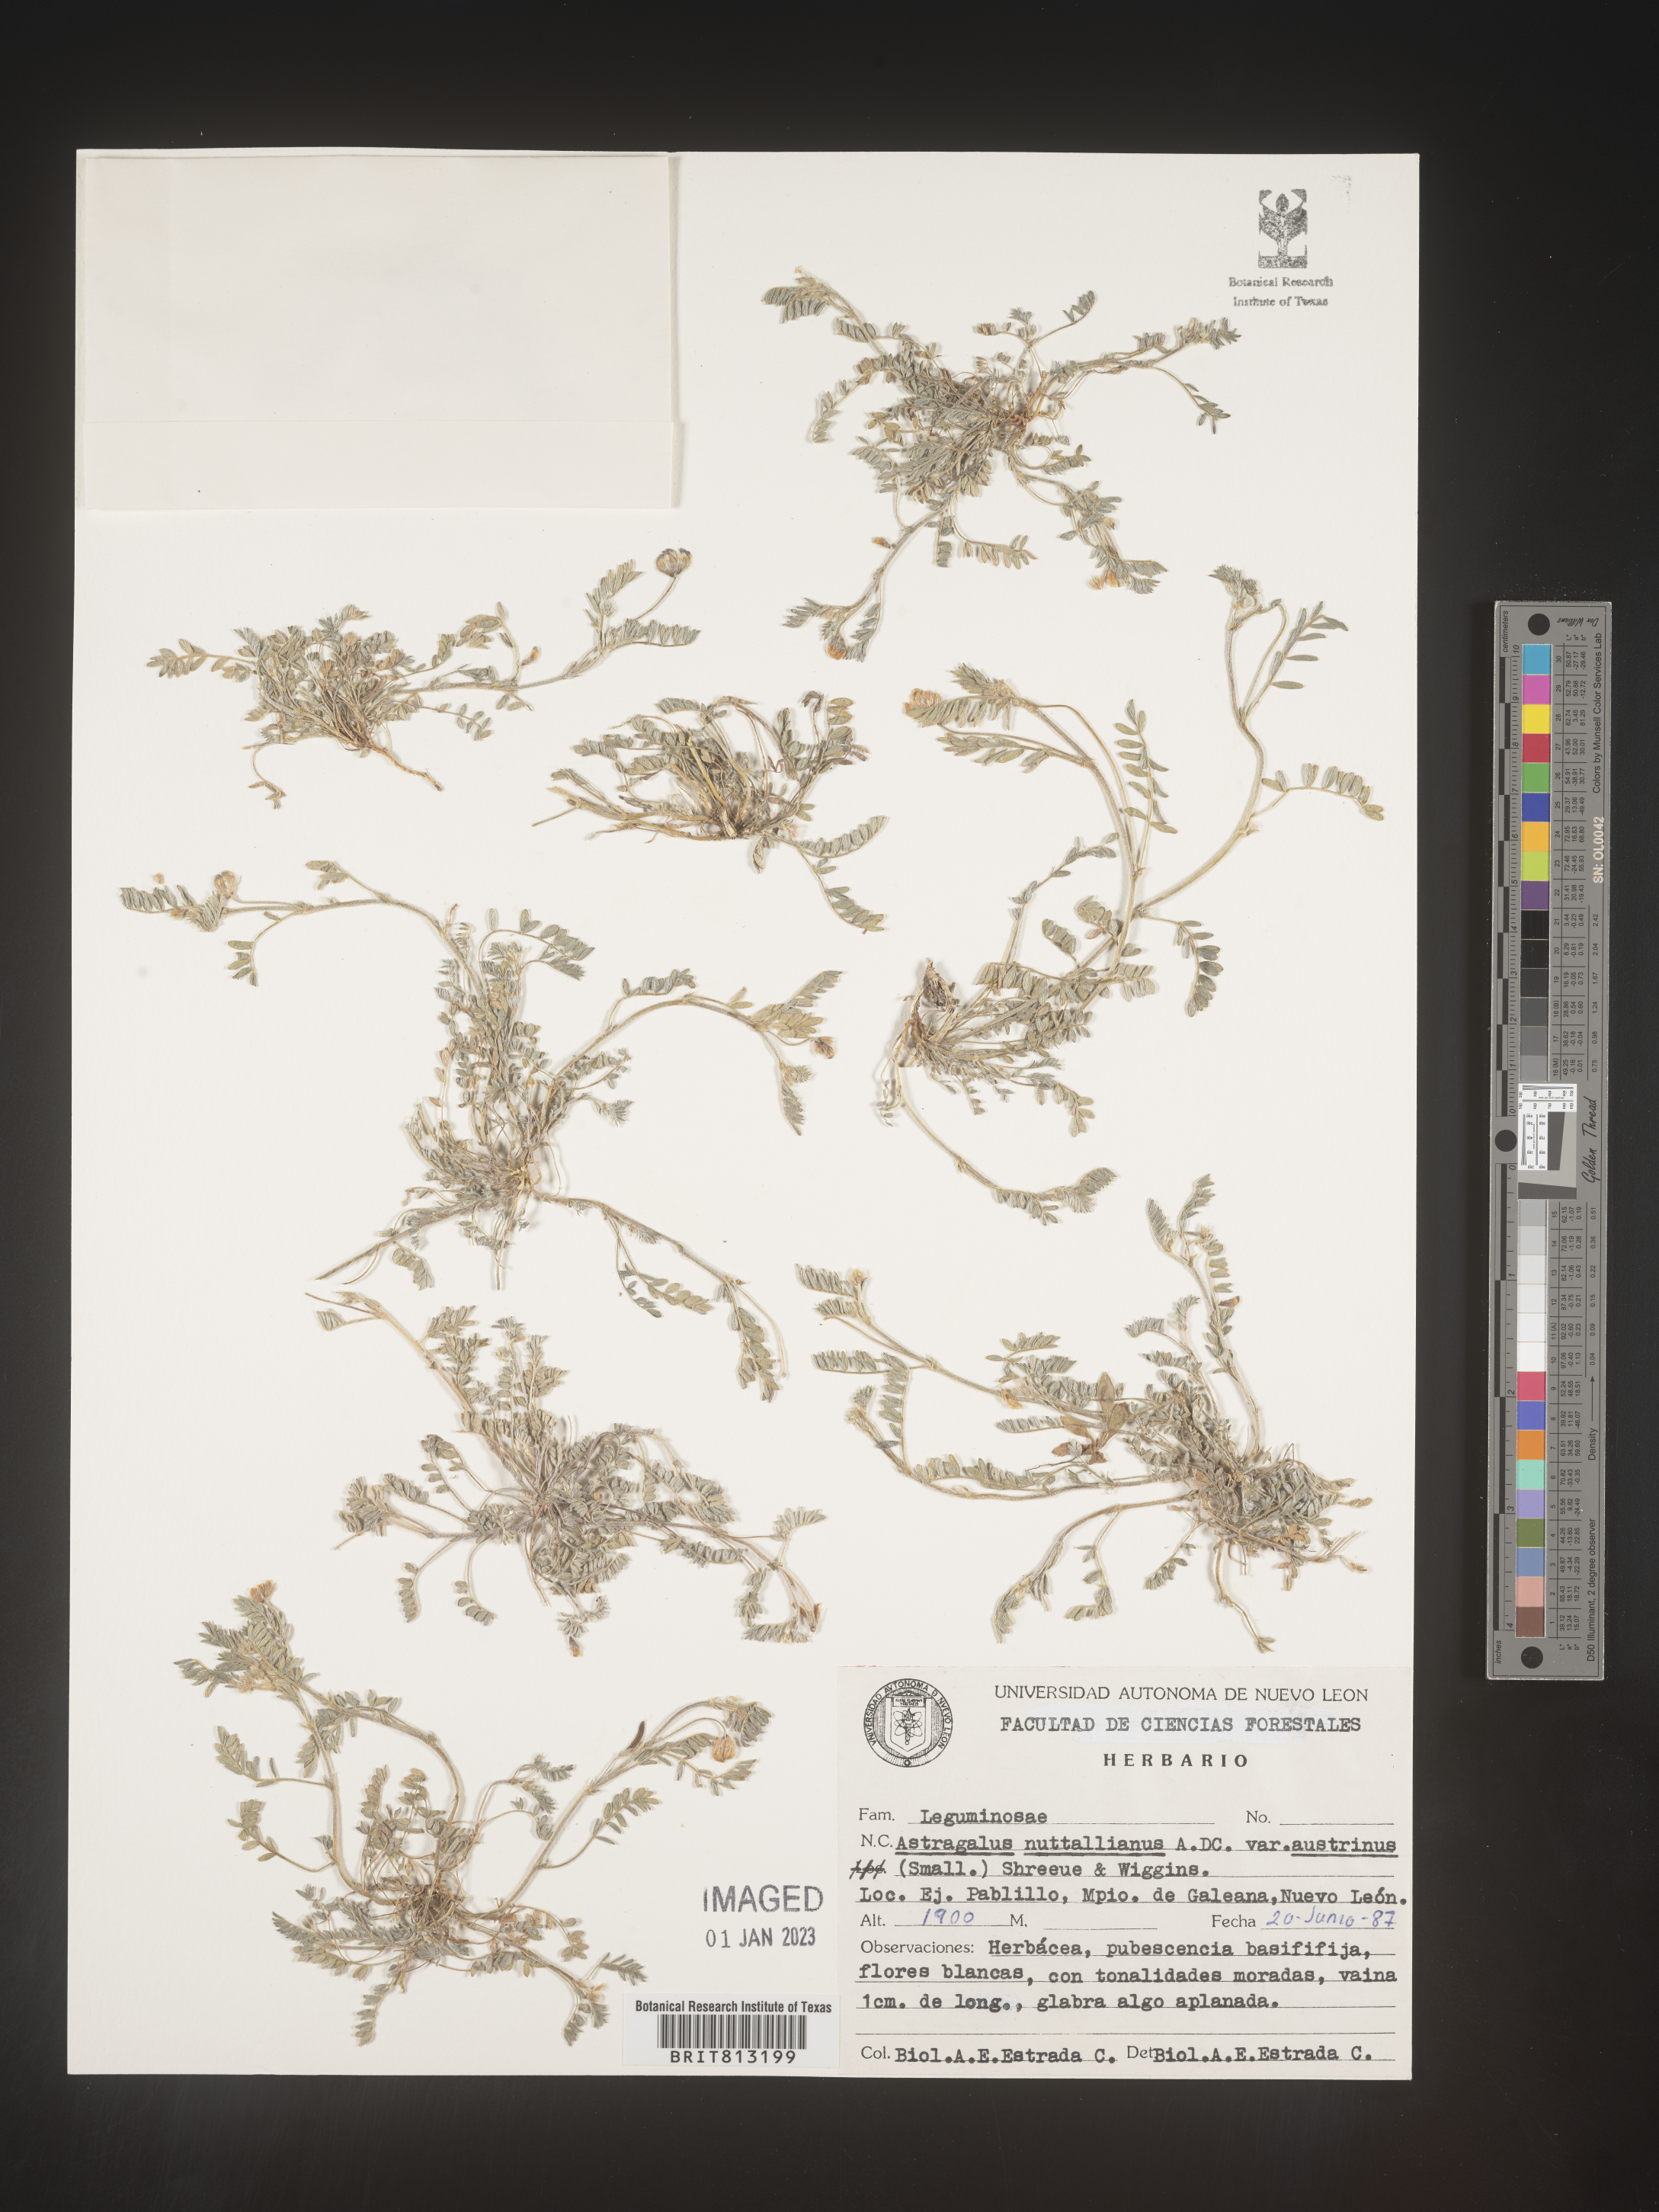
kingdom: Plantae
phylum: Tracheophyta
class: Magnoliopsida
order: Fabales
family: Fabaceae
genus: Astragalus
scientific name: Astragalus
